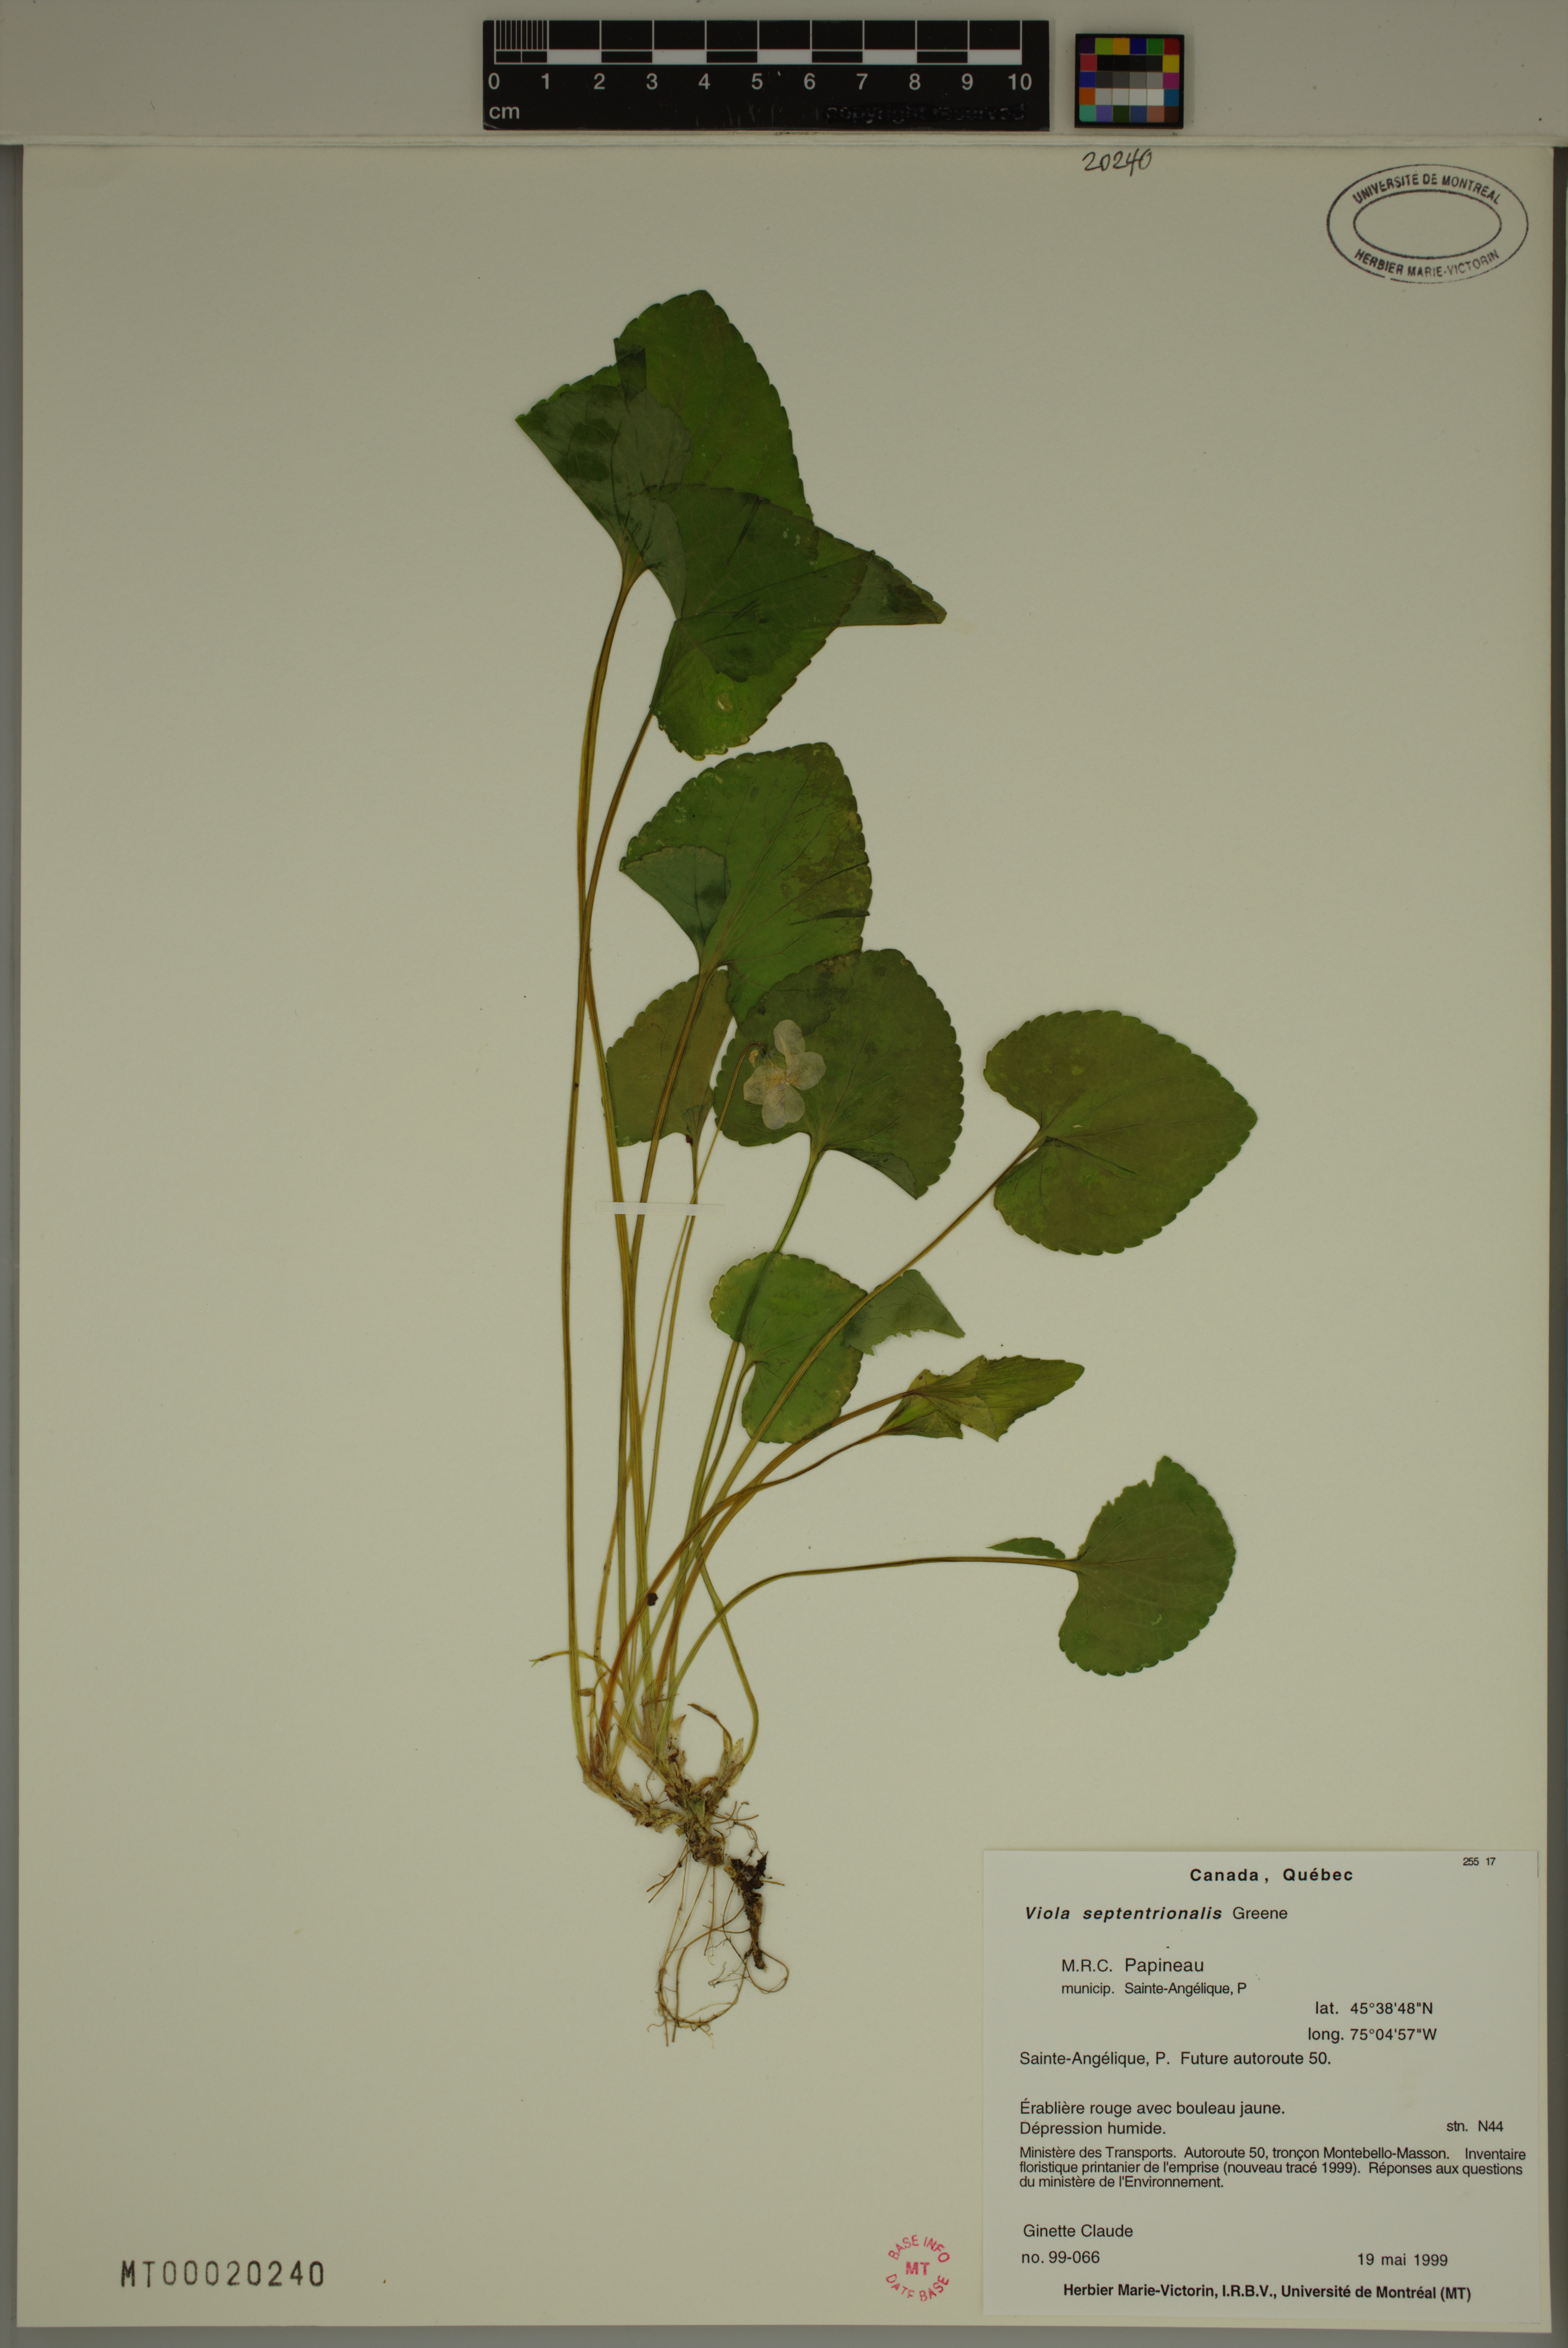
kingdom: Plantae
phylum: Tracheophyta
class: Magnoliopsida
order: Malpighiales
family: Violaceae
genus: Viola
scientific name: Viola sororia
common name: Dooryard violet
